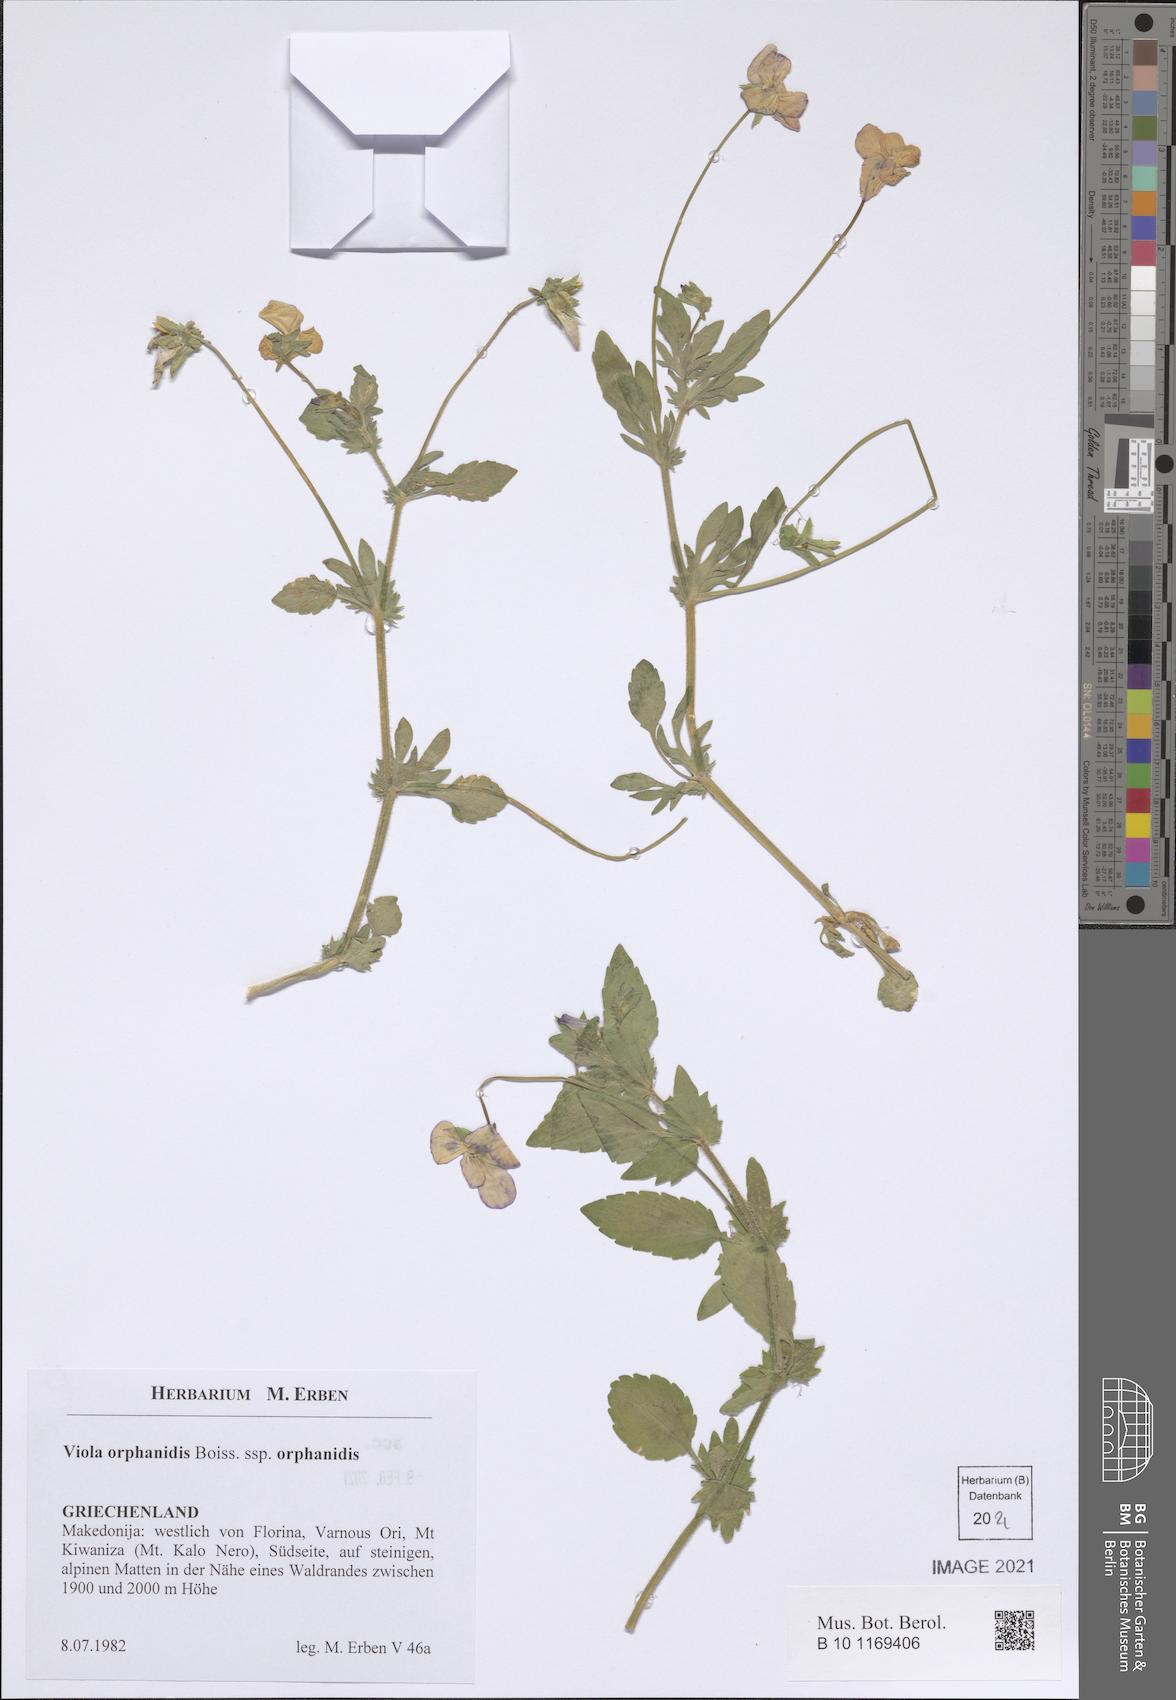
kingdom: Plantae
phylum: Tracheophyta
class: Magnoliopsida
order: Malpighiales
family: Violaceae
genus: Viola
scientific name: Viola orphanidis
